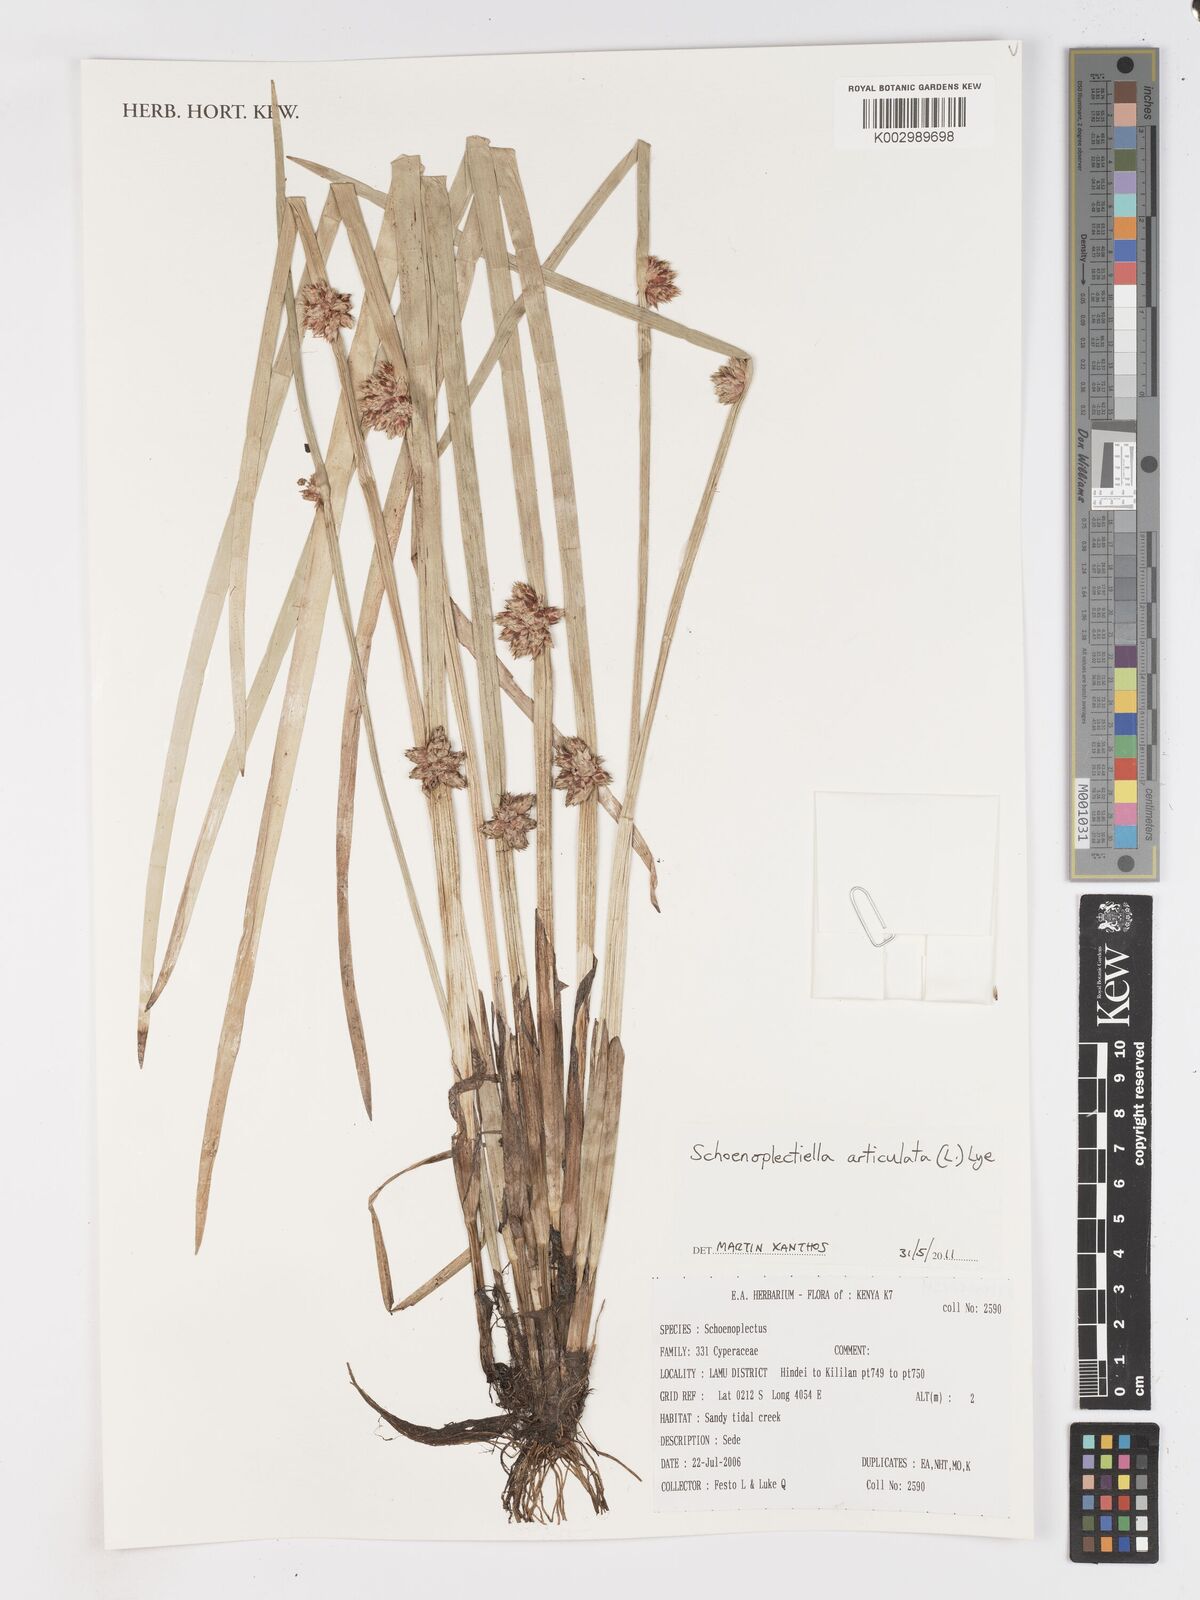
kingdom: Plantae
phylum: Tracheophyta
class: Liliopsida
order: Poales
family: Cyperaceae
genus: Schoenoplectiella
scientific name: Schoenoplectiella articulata
